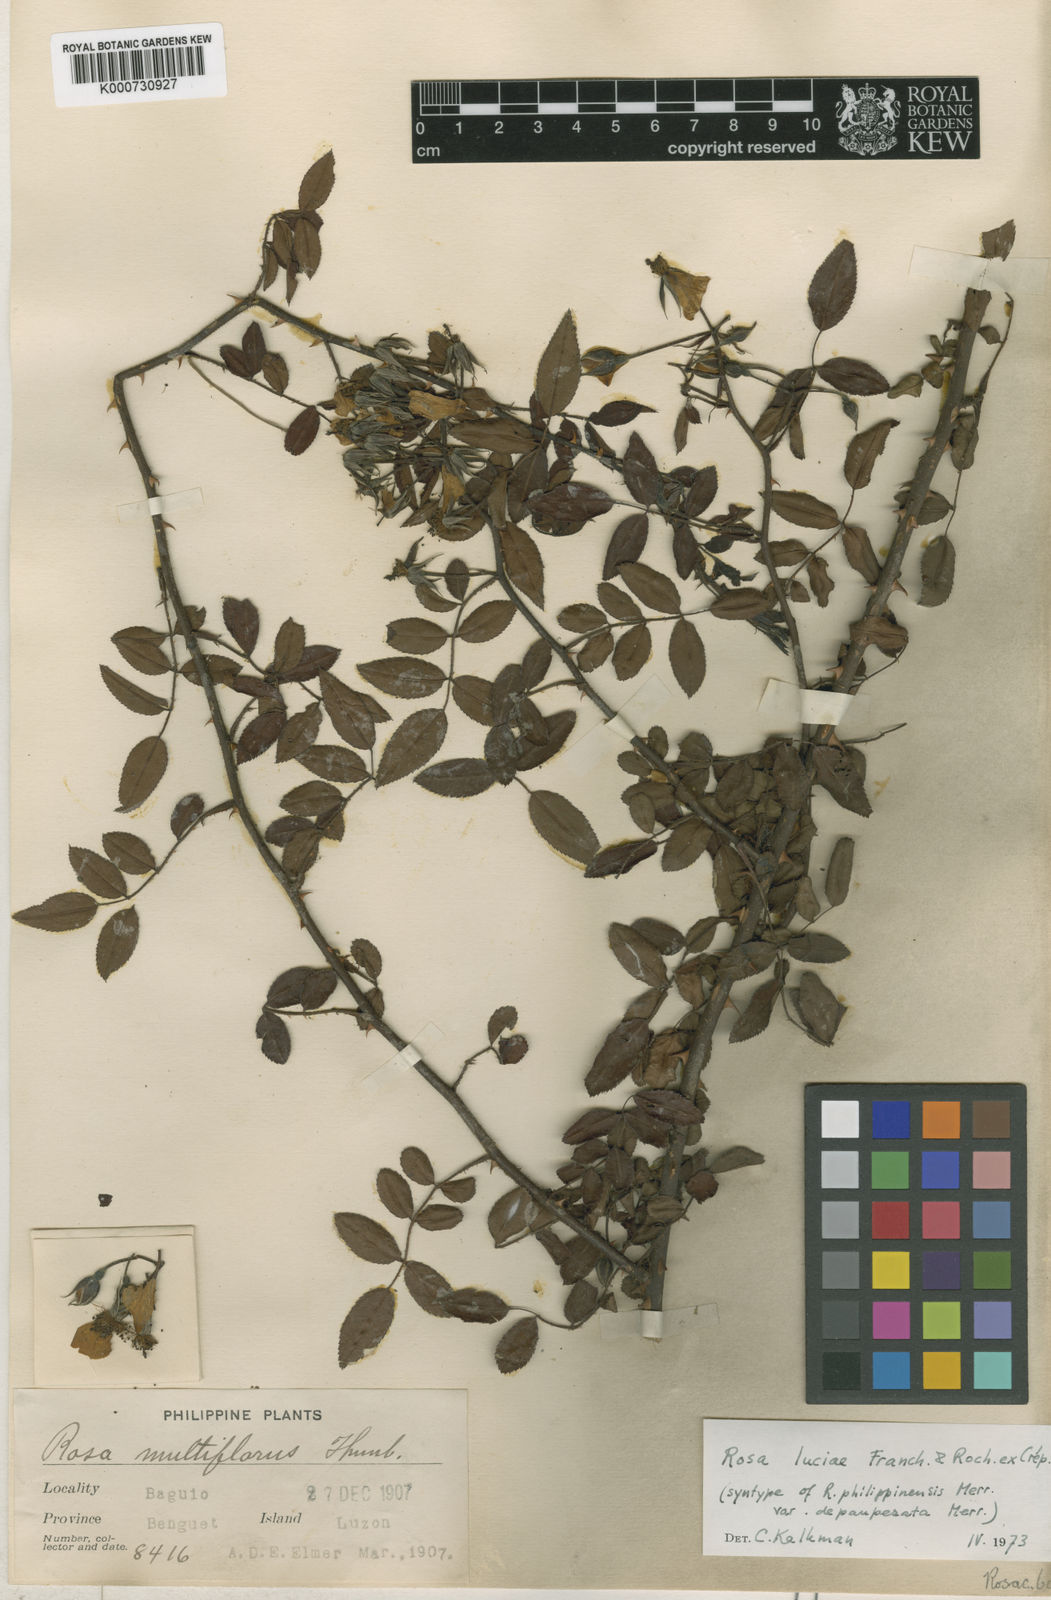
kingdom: Plantae
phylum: Tracheophyta
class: Magnoliopsida
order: Rosales
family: Rosaceae
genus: Rosa
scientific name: Rosa
